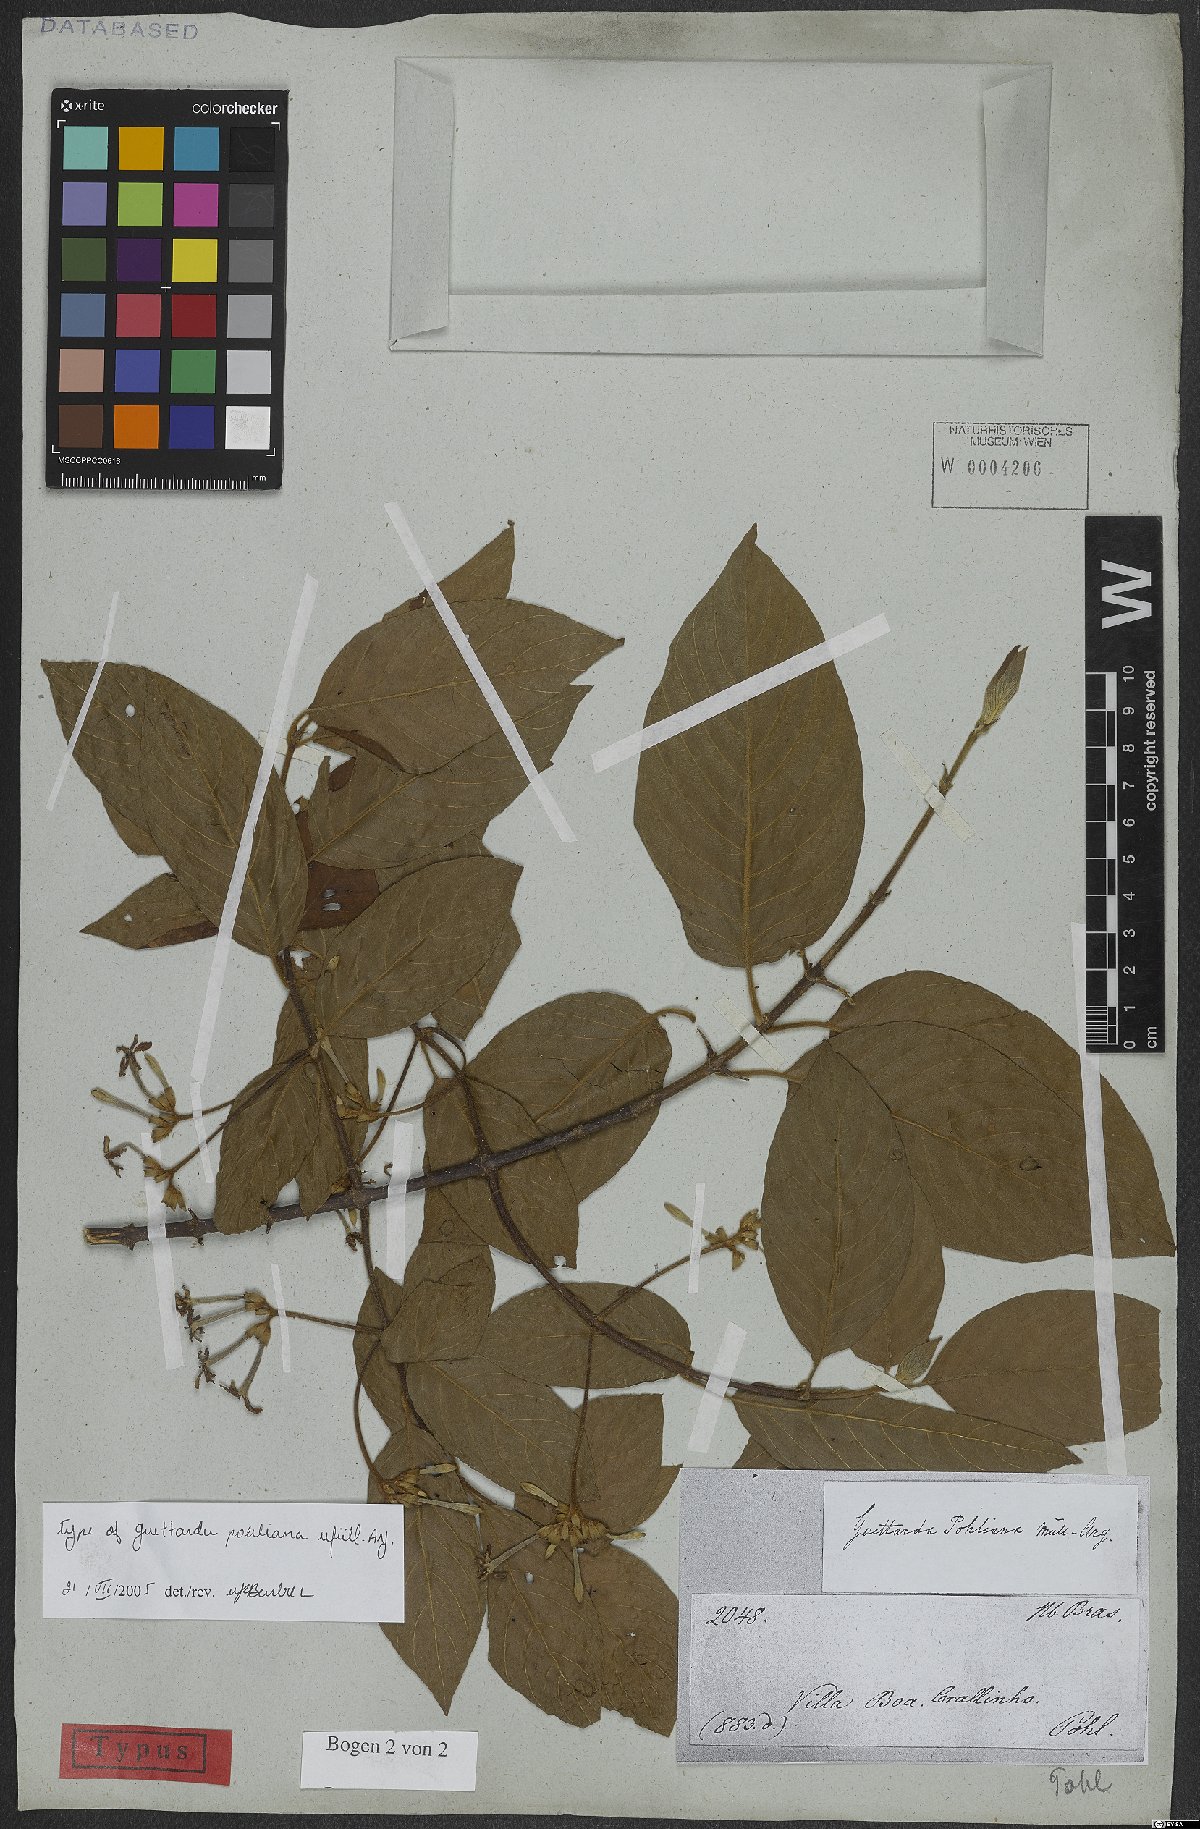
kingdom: Plantae
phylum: Tracheophyta
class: Magnoliopsida
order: Gentianales
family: Rubiaceae
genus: Guettarda
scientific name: Guettarda pohliana
